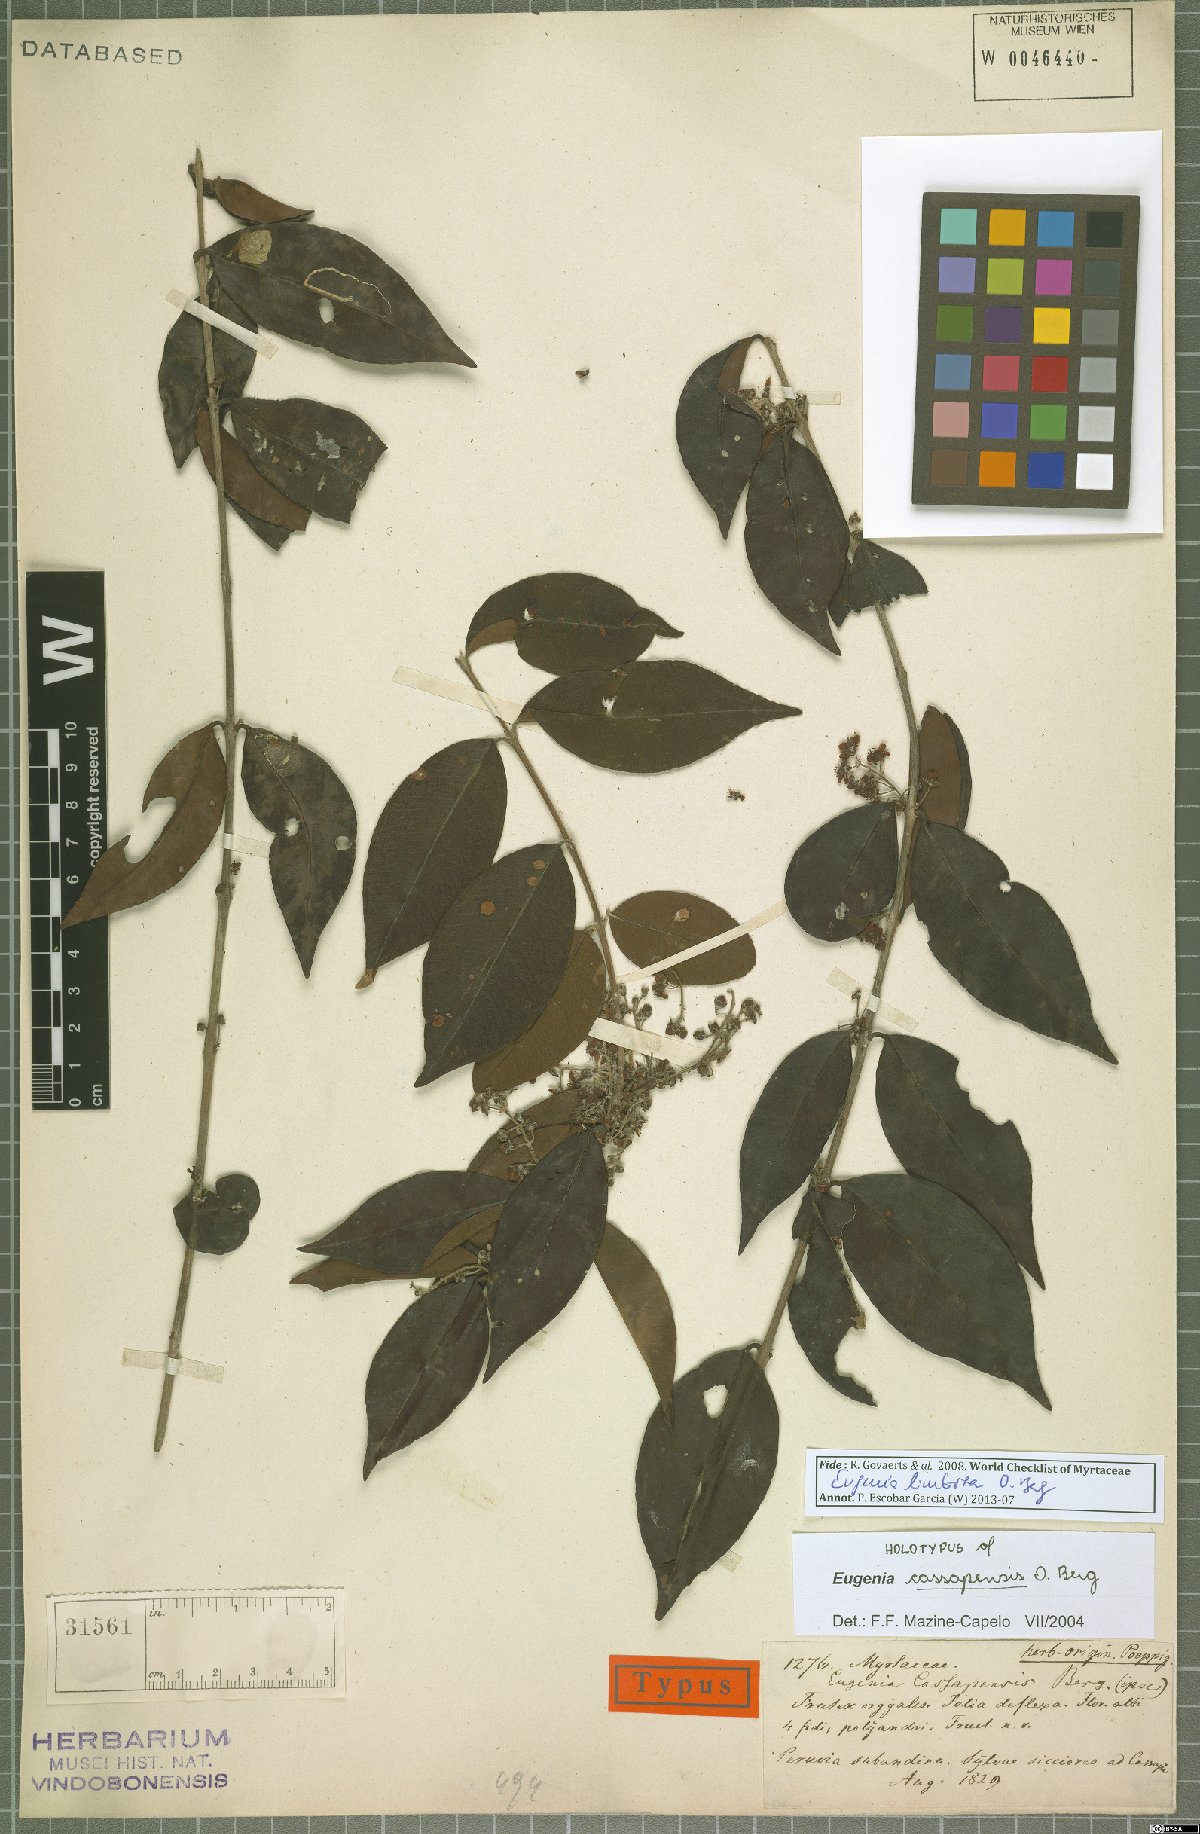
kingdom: Plantae
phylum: Tracheophyta
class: Magnoliopsida
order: Myrtales
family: Myrtaceae
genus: Eugenia
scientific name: Eugenia limbosa
